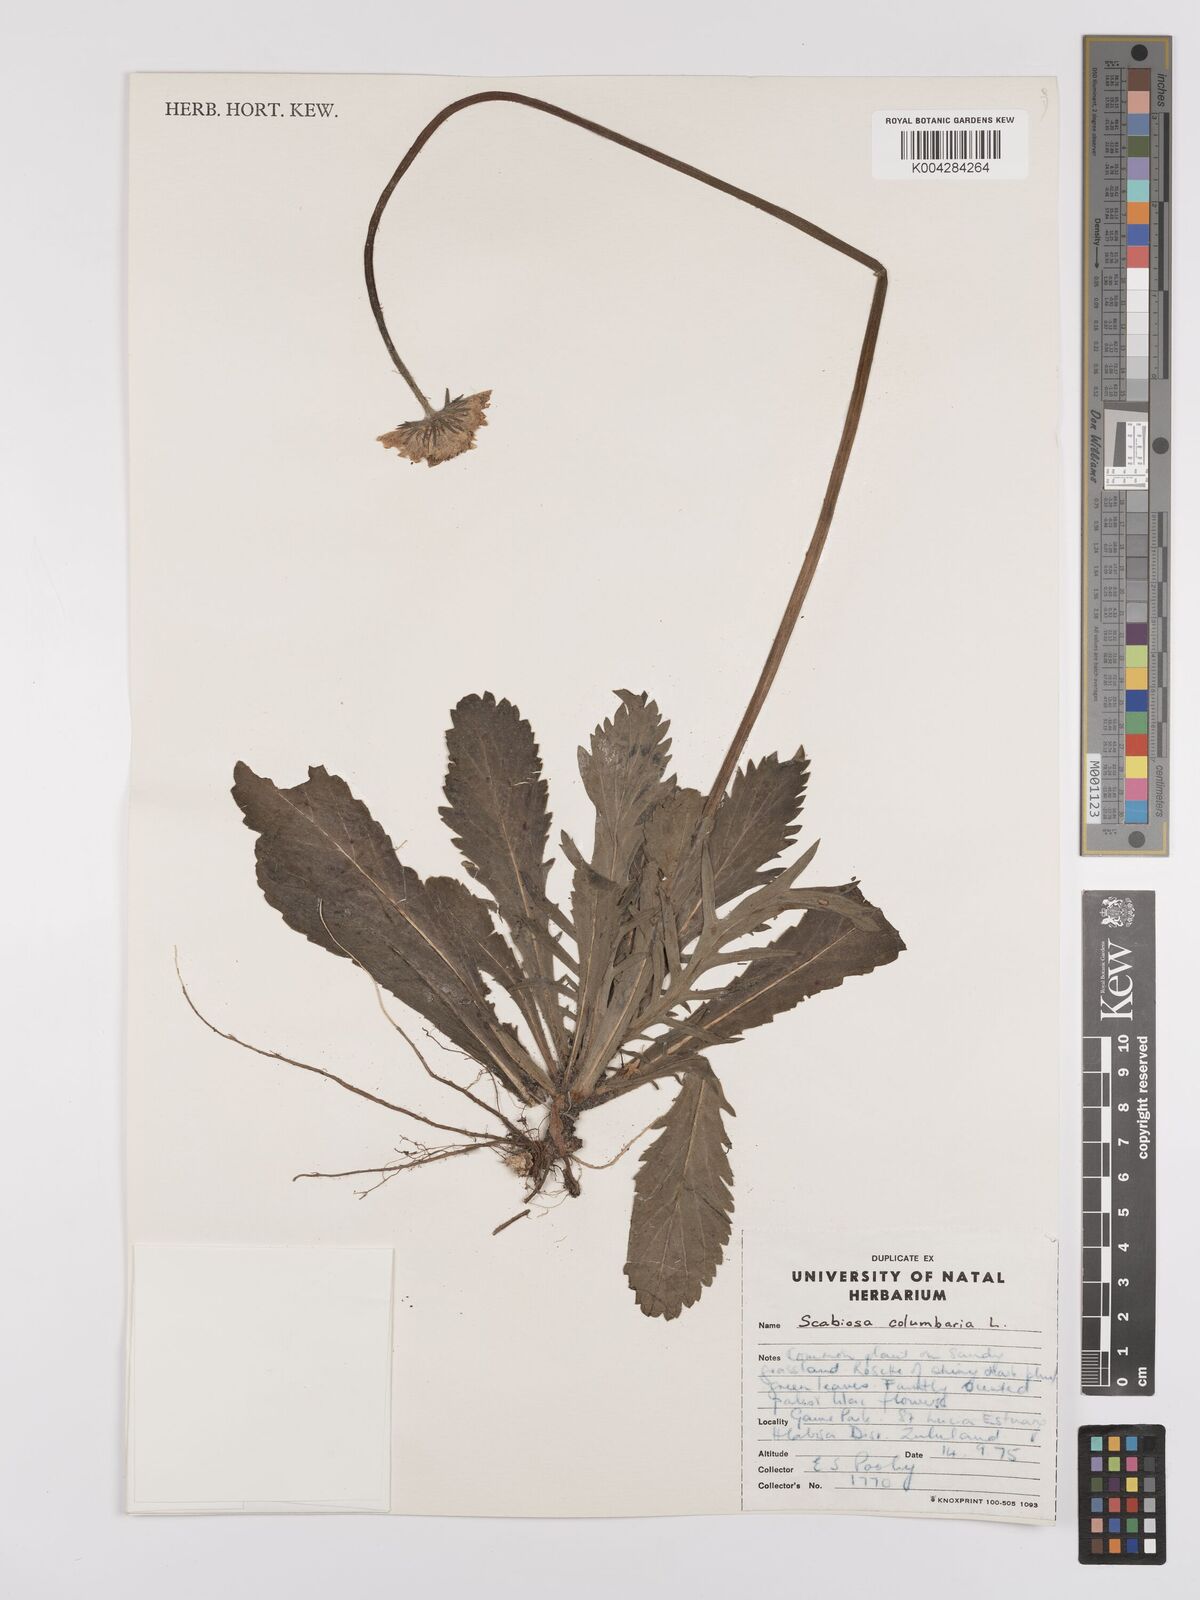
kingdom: Plantae
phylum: Tracheophyta
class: Magnoliopsida
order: Dipsacales
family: Caprifoliaceae
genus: Scabiosa
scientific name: Scabiosa columbaria
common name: Small scabious
